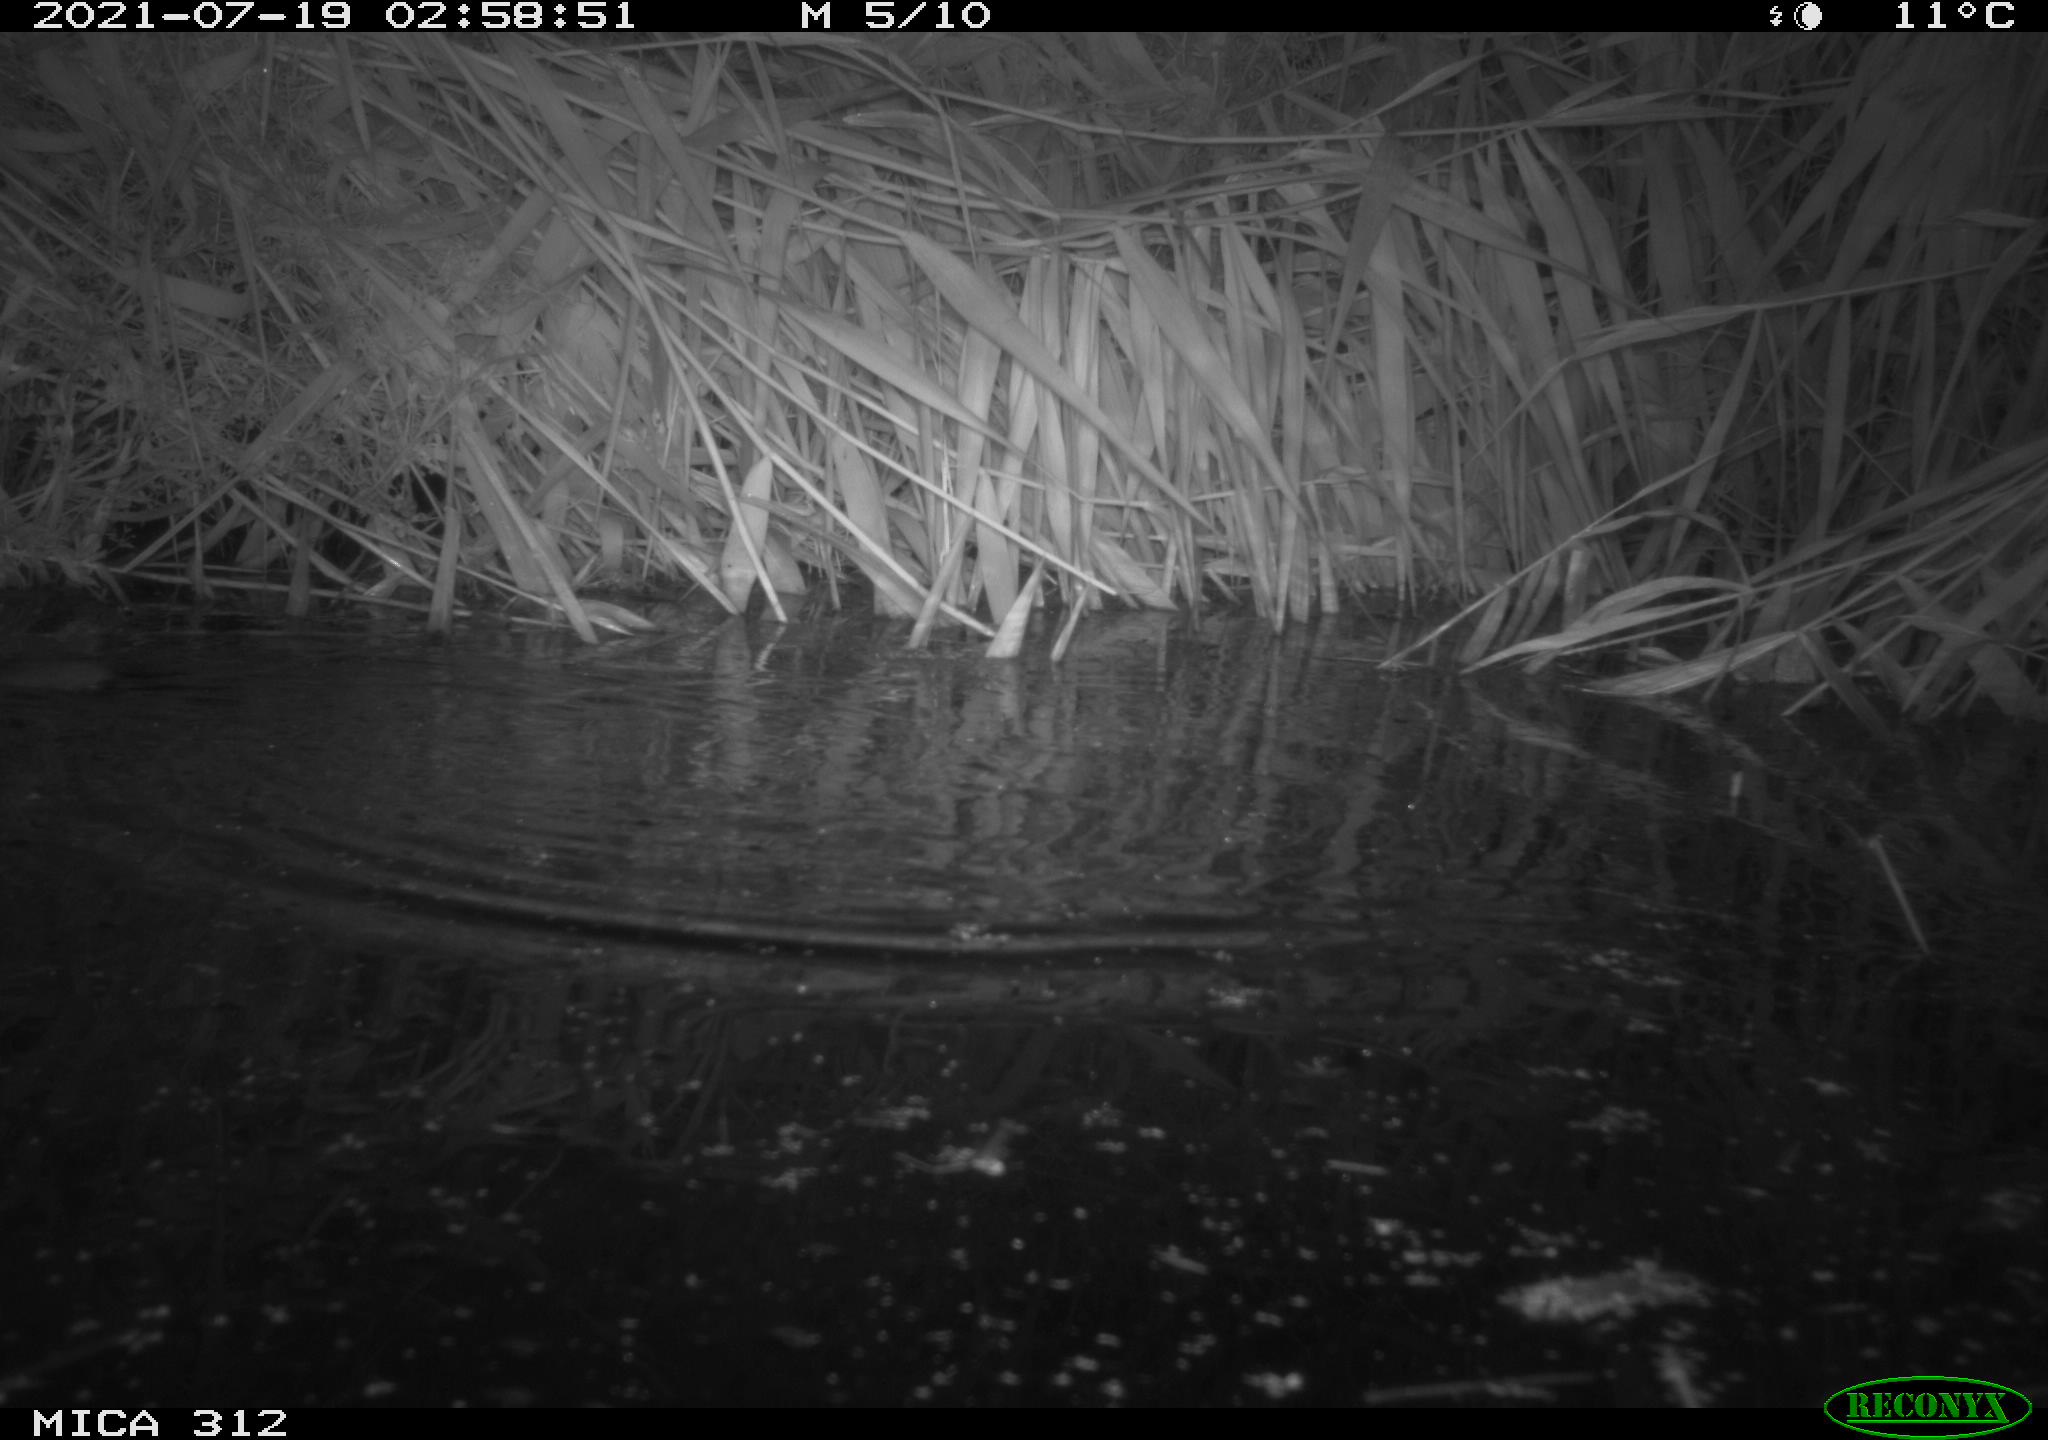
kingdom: Animalia
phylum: Chordata
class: Mammalia
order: Rodentia
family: Muridae
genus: Rattus
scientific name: Rattus norvegicus
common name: Brown rat
